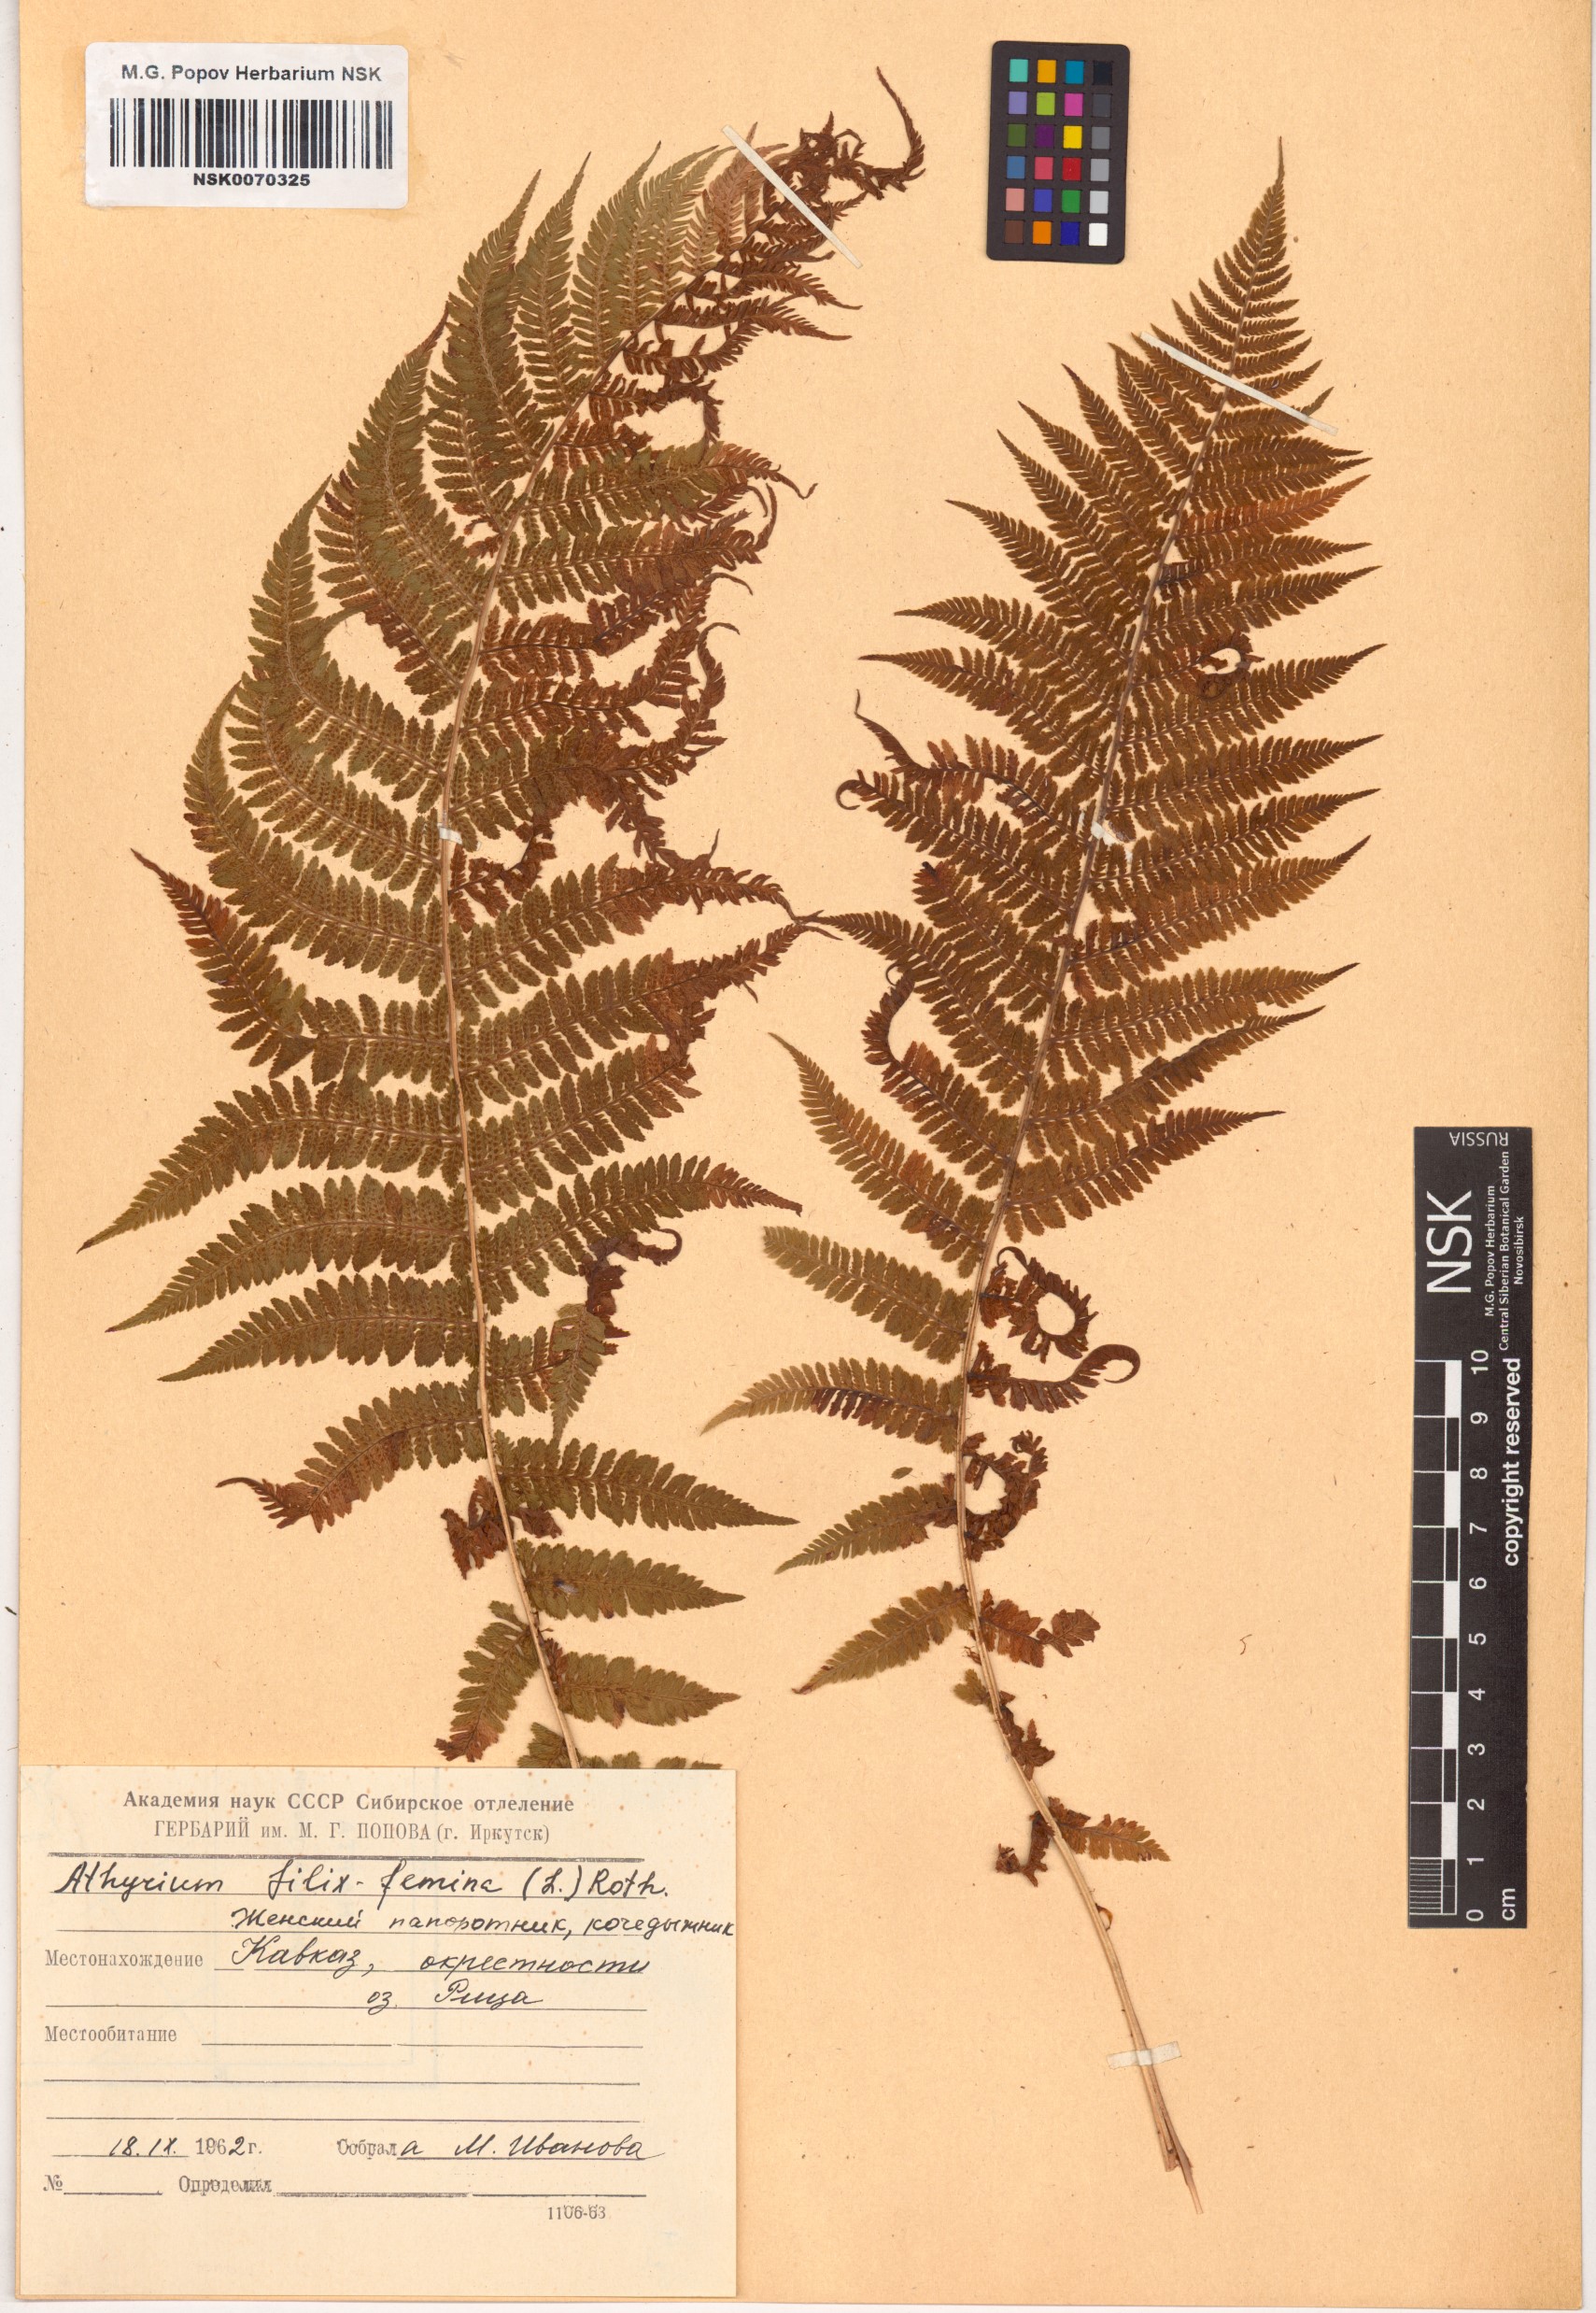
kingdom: Plantae
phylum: Tracheophyta
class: Polypodiopsida
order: Polypodiales
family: Athyriaceae
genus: Athyrium
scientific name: Athyrium filix-femina
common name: Lady fern
